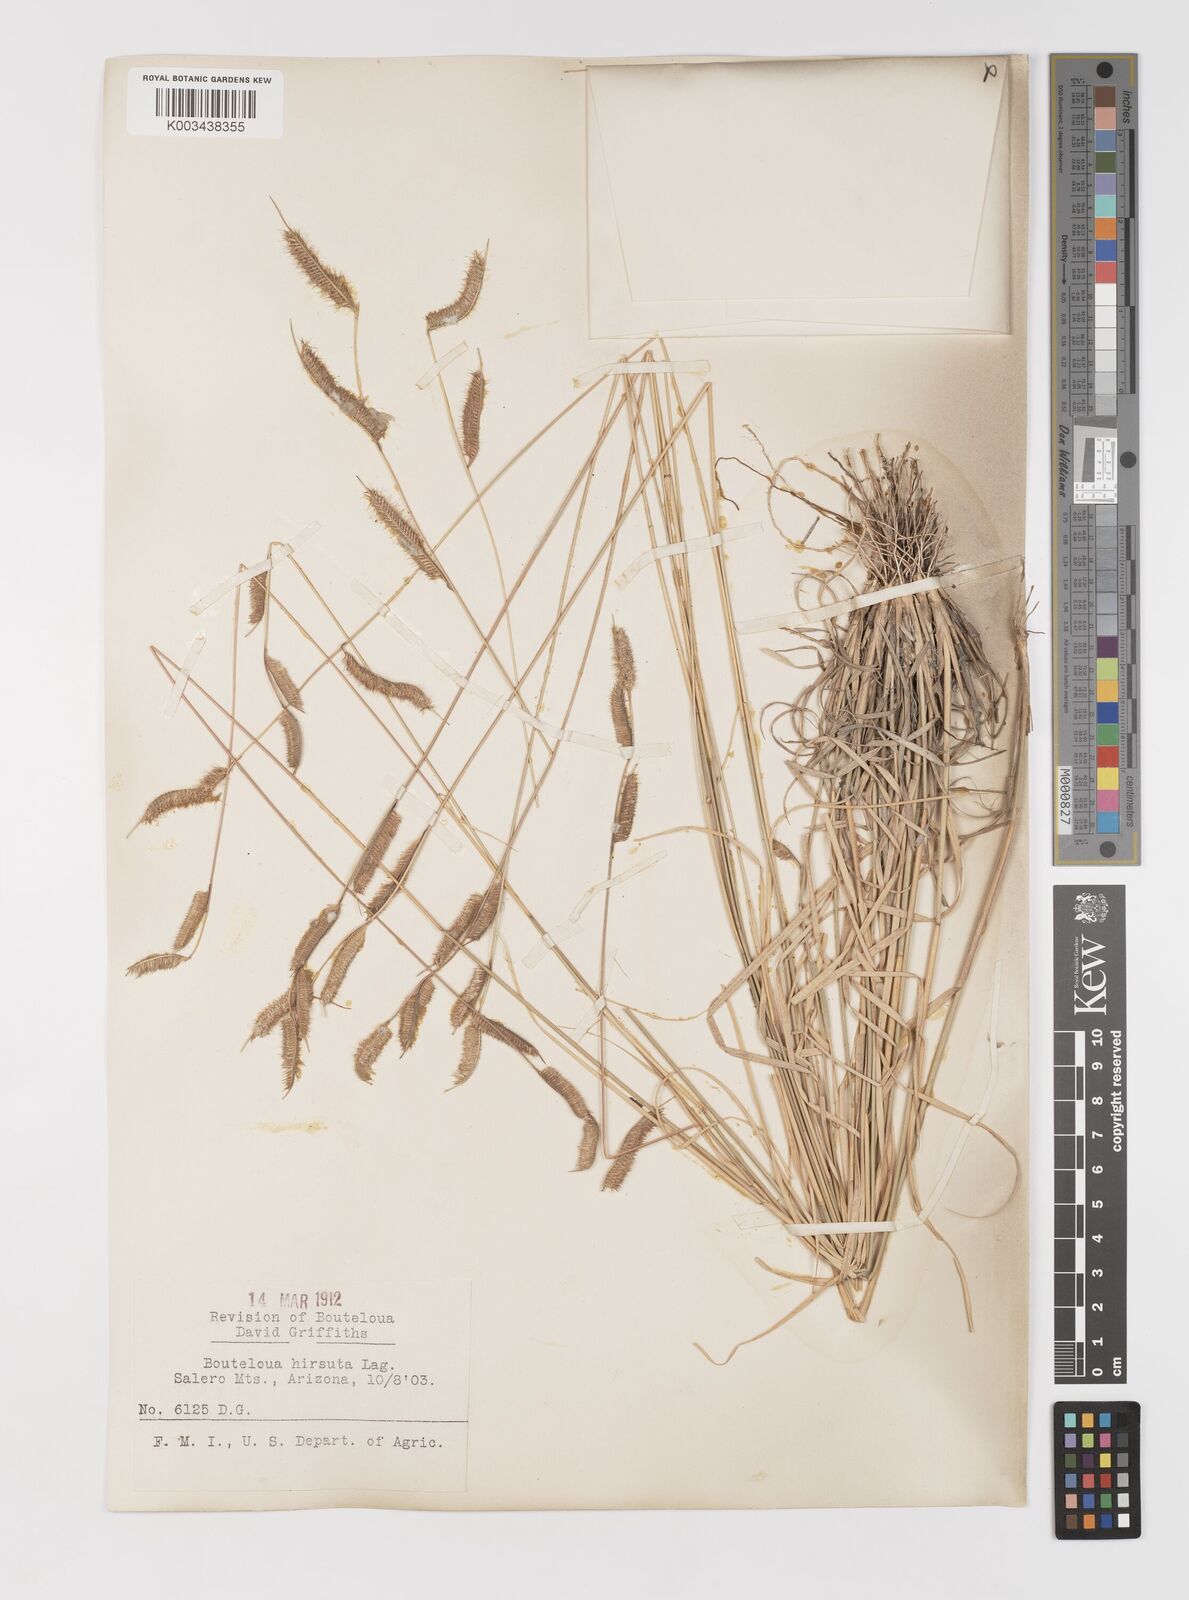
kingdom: Plantae
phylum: Tracheophyta
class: Liliopsida
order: Poales
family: Poaceae
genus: Bouteloua
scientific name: Bouteloua hirsuta
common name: Hairy grama
